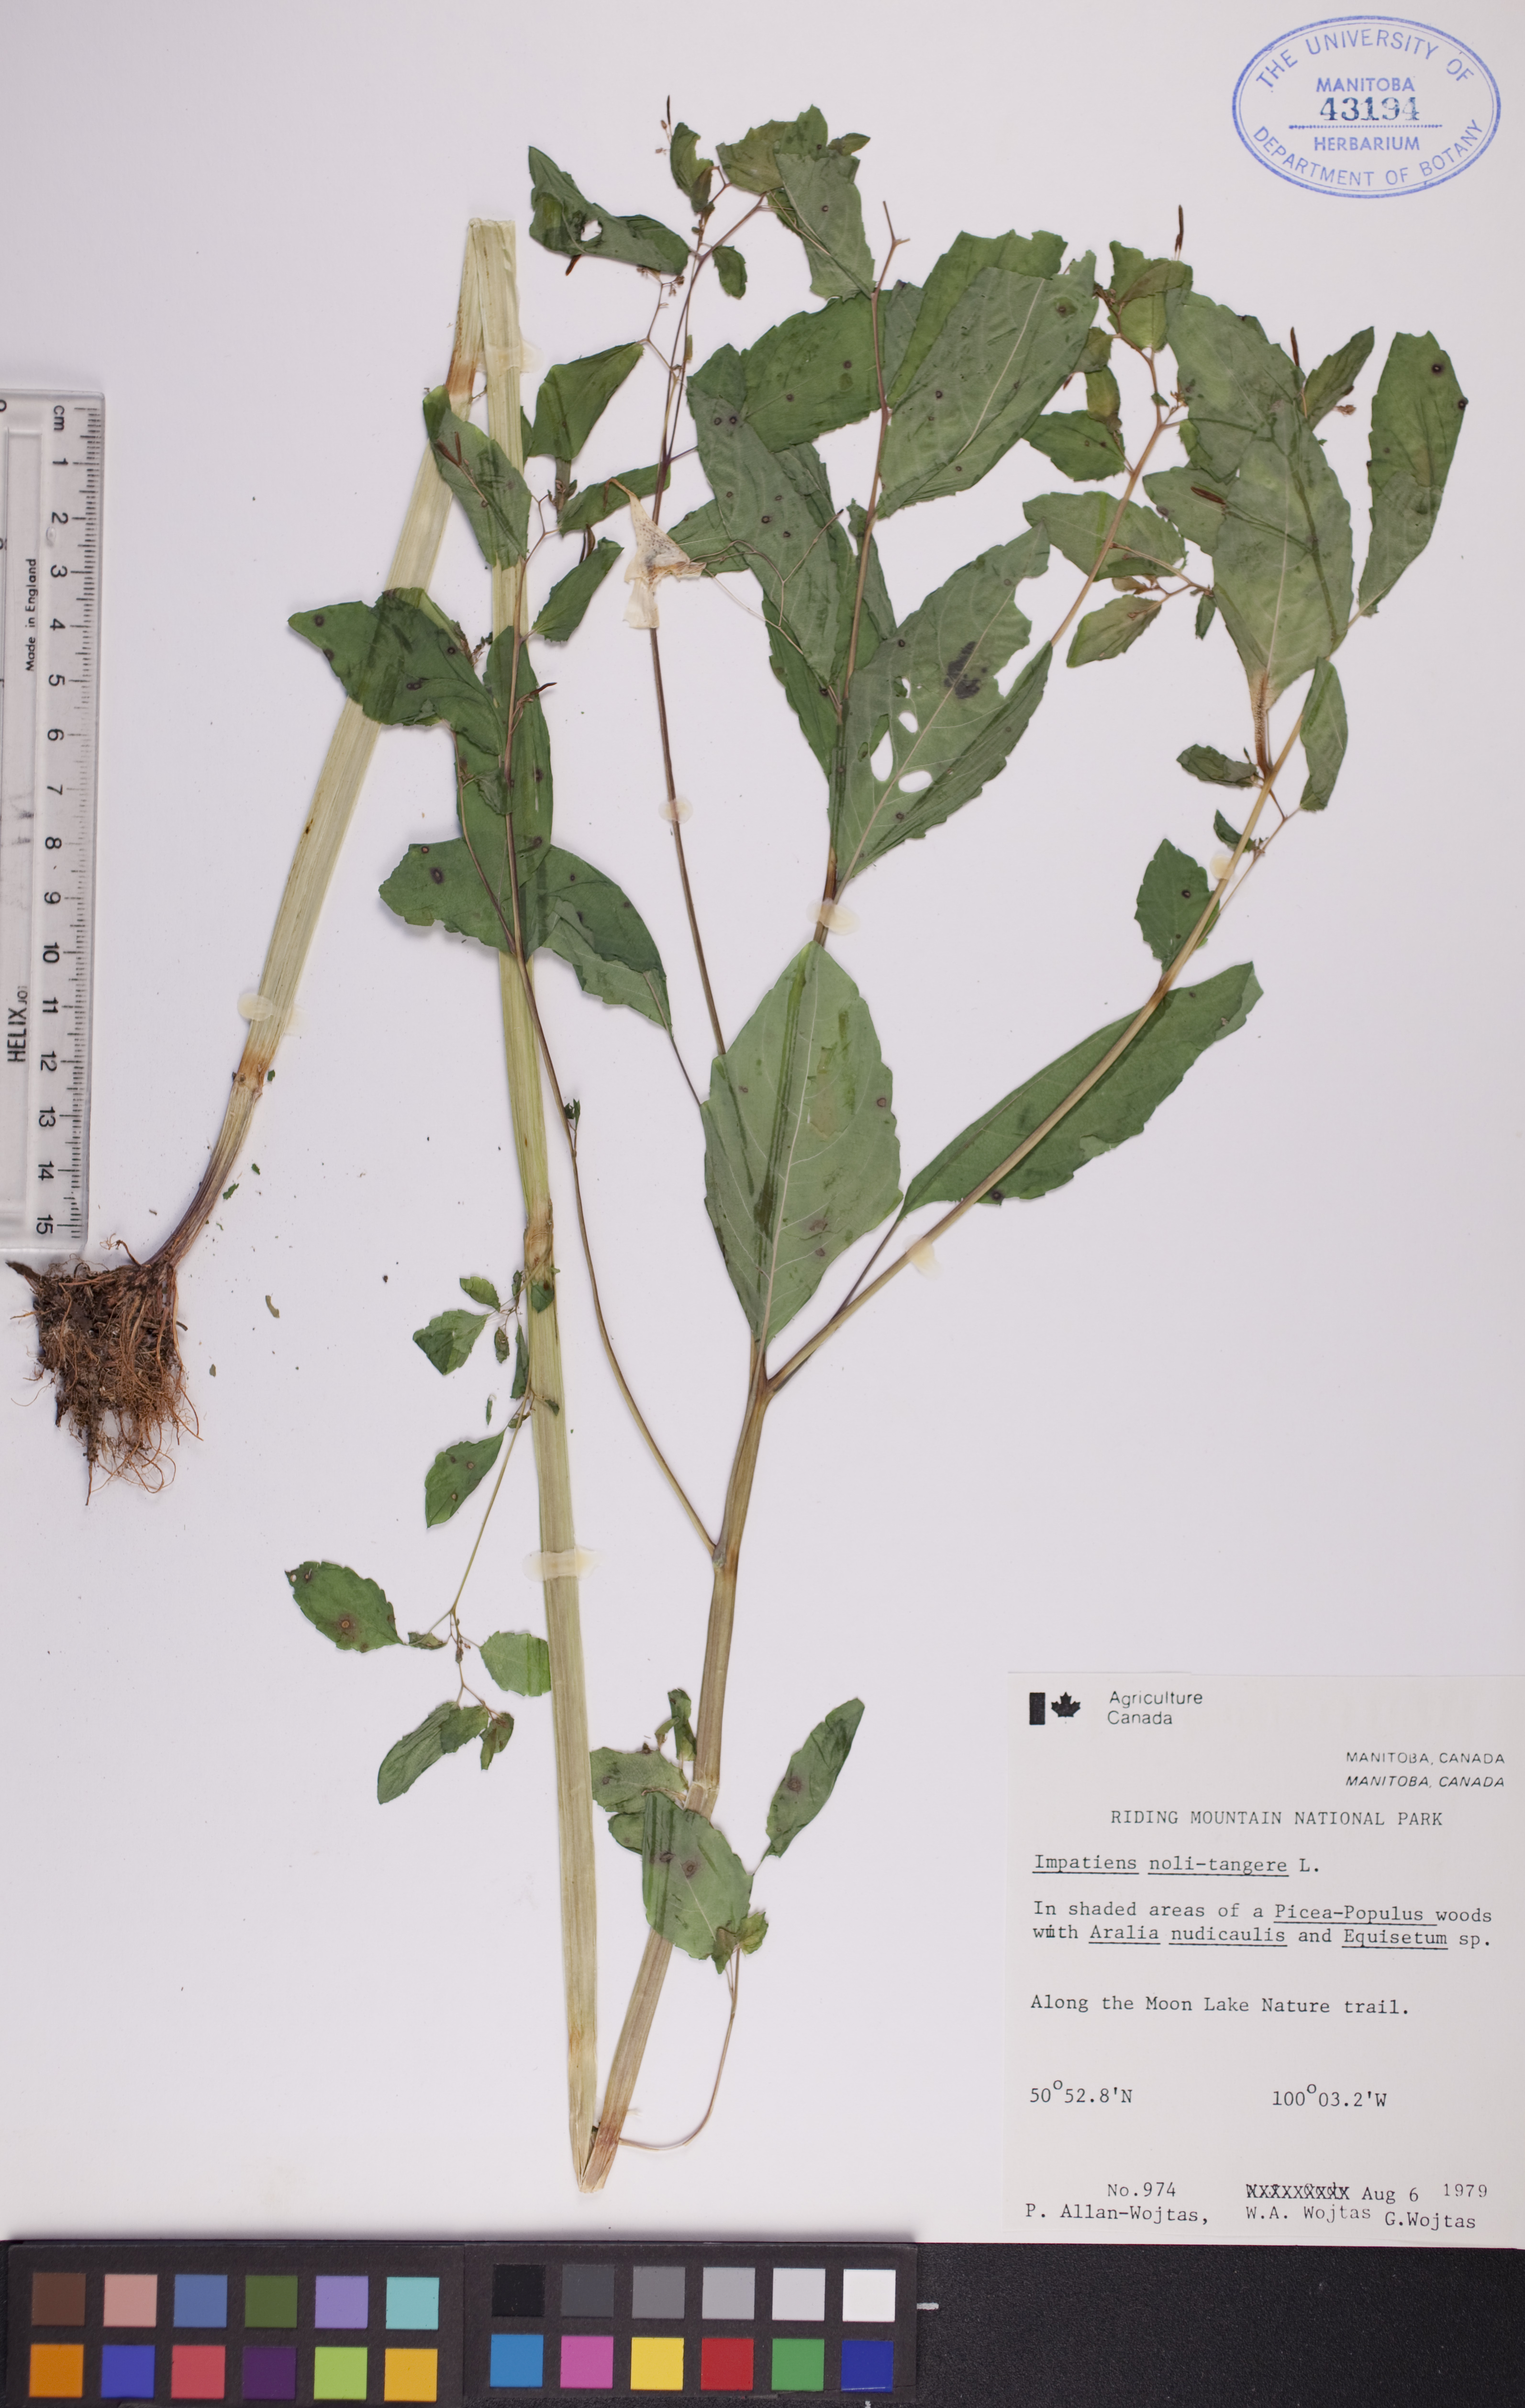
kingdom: Plantae
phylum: Tracheophyta
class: Magnoliopsida
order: Ericales
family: Balsaminaceae
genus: Impatiens
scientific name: Impatiens noli-tangere
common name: Touch-me-not balsam
